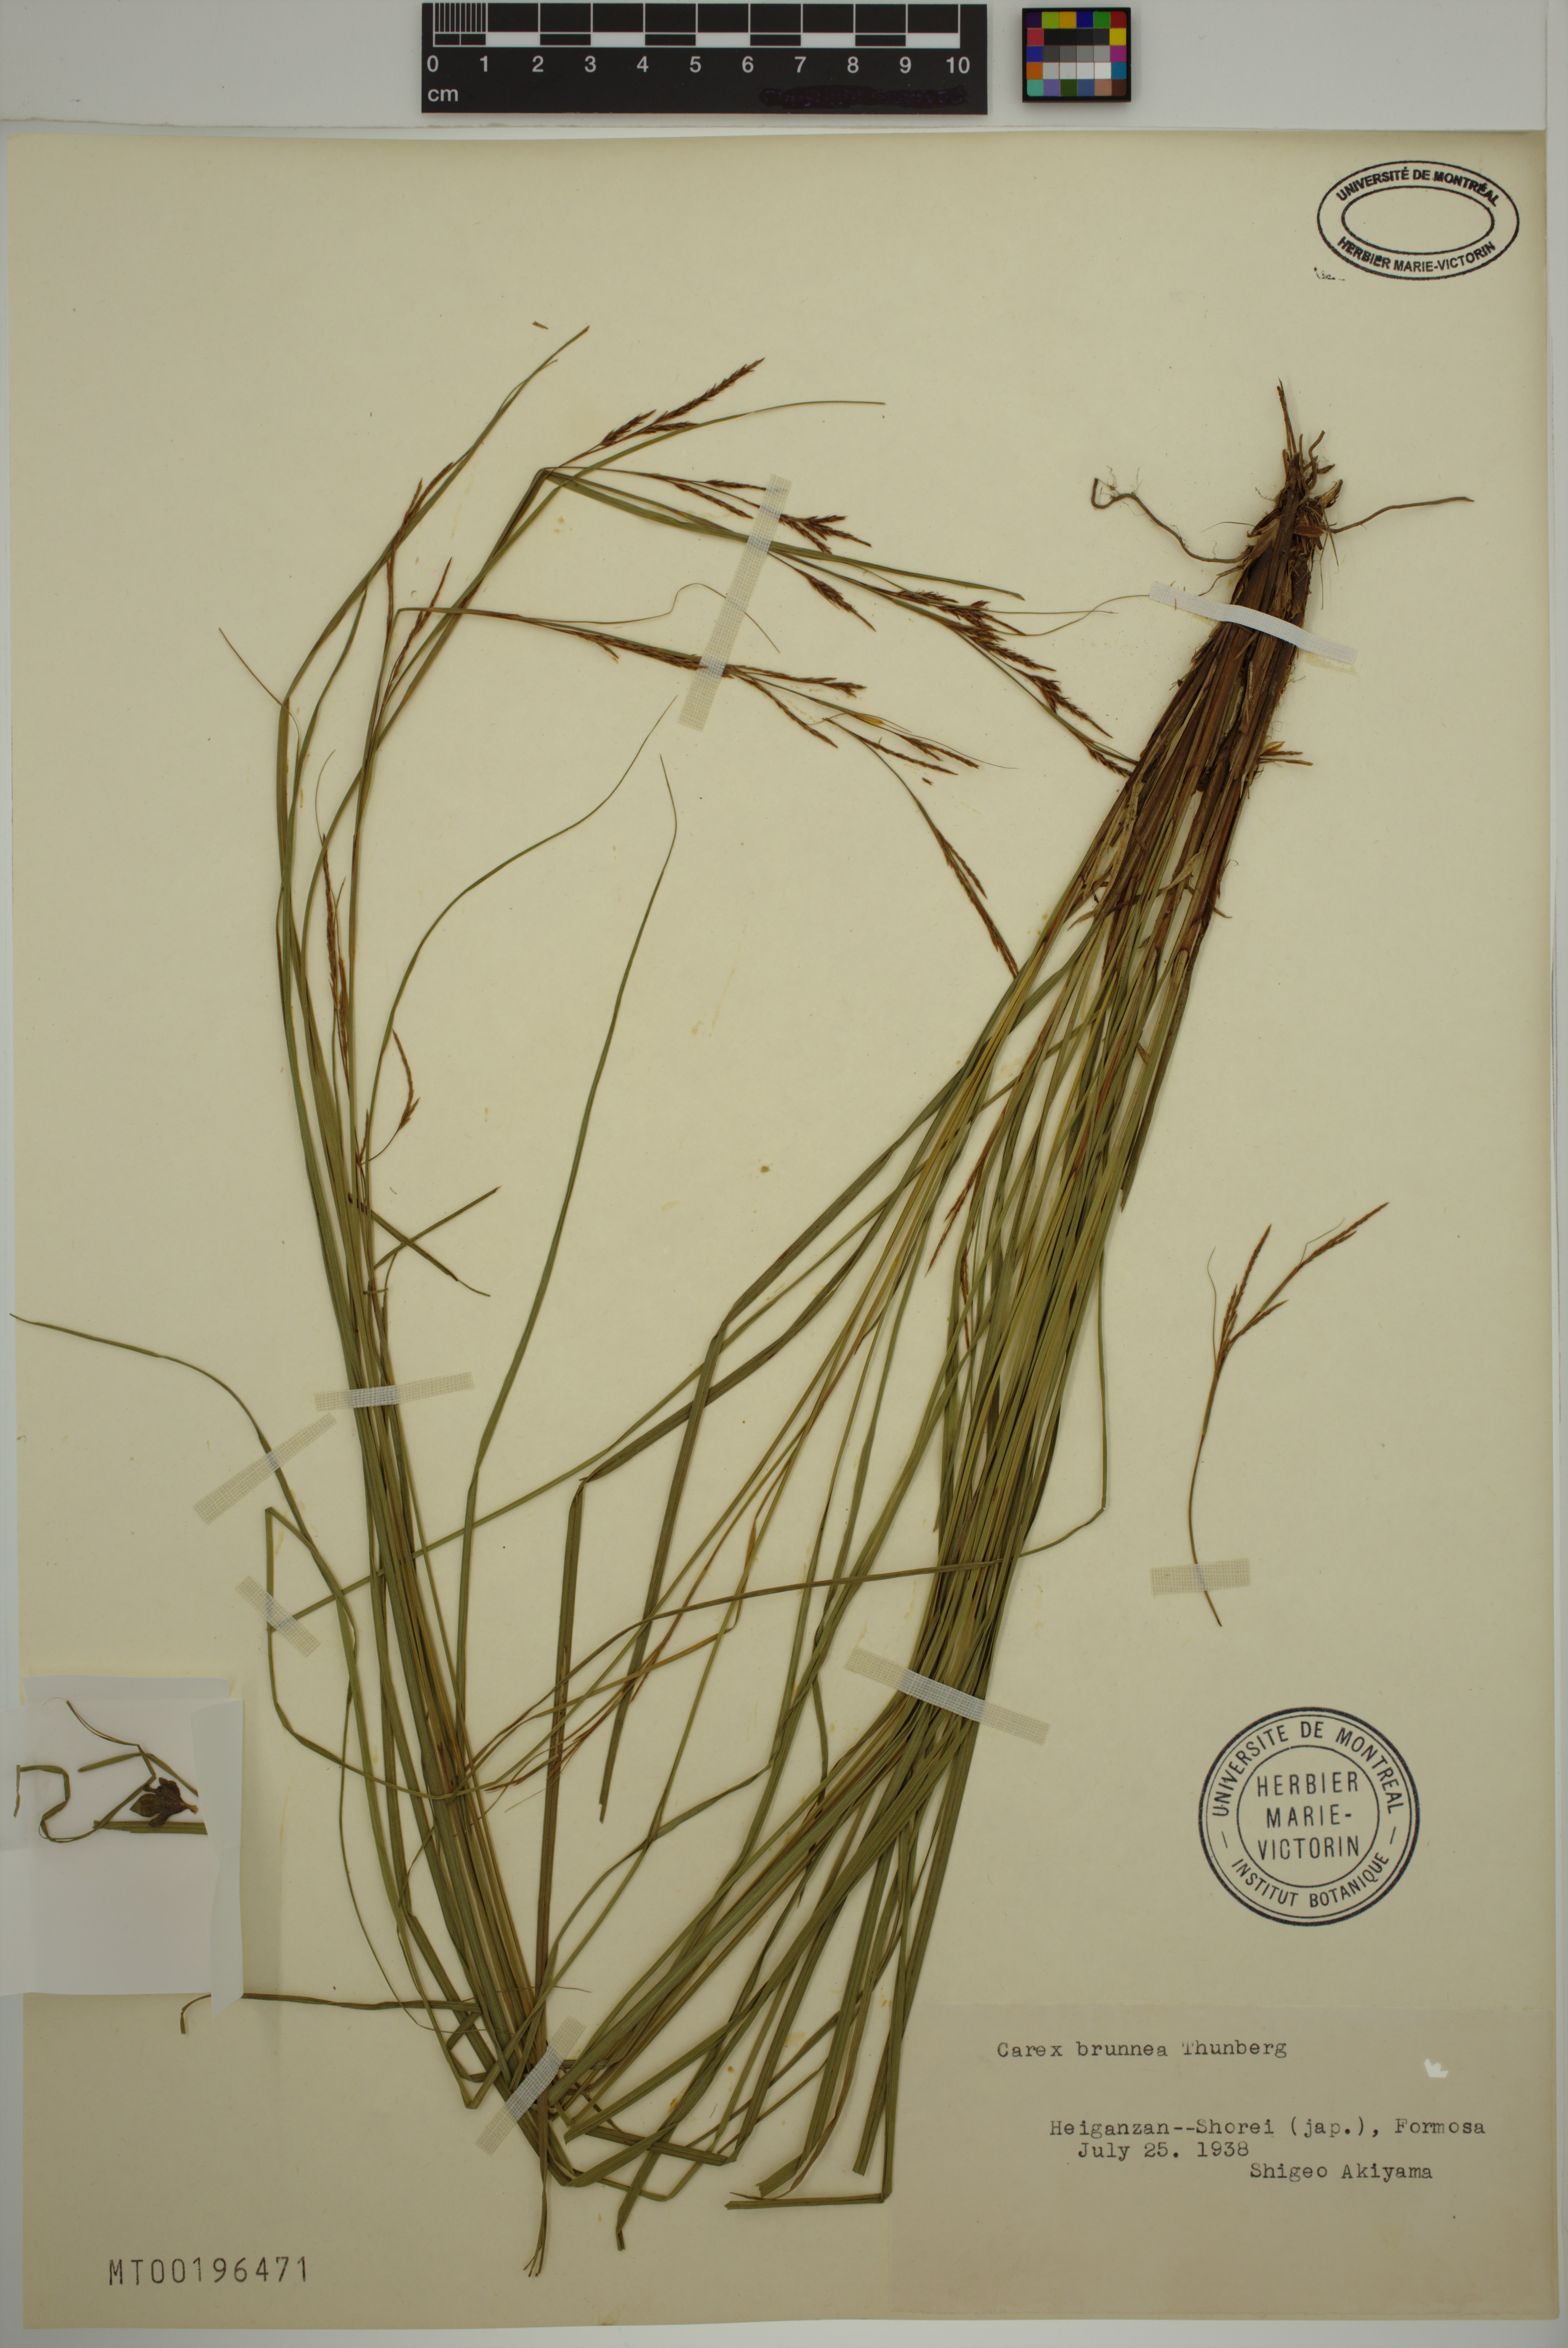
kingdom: Plantae
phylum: Tracheophyta
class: Liliopsida
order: Poales
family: Cyperaceae
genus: Carex
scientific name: Carex brunnea
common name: Greater brown sedge
